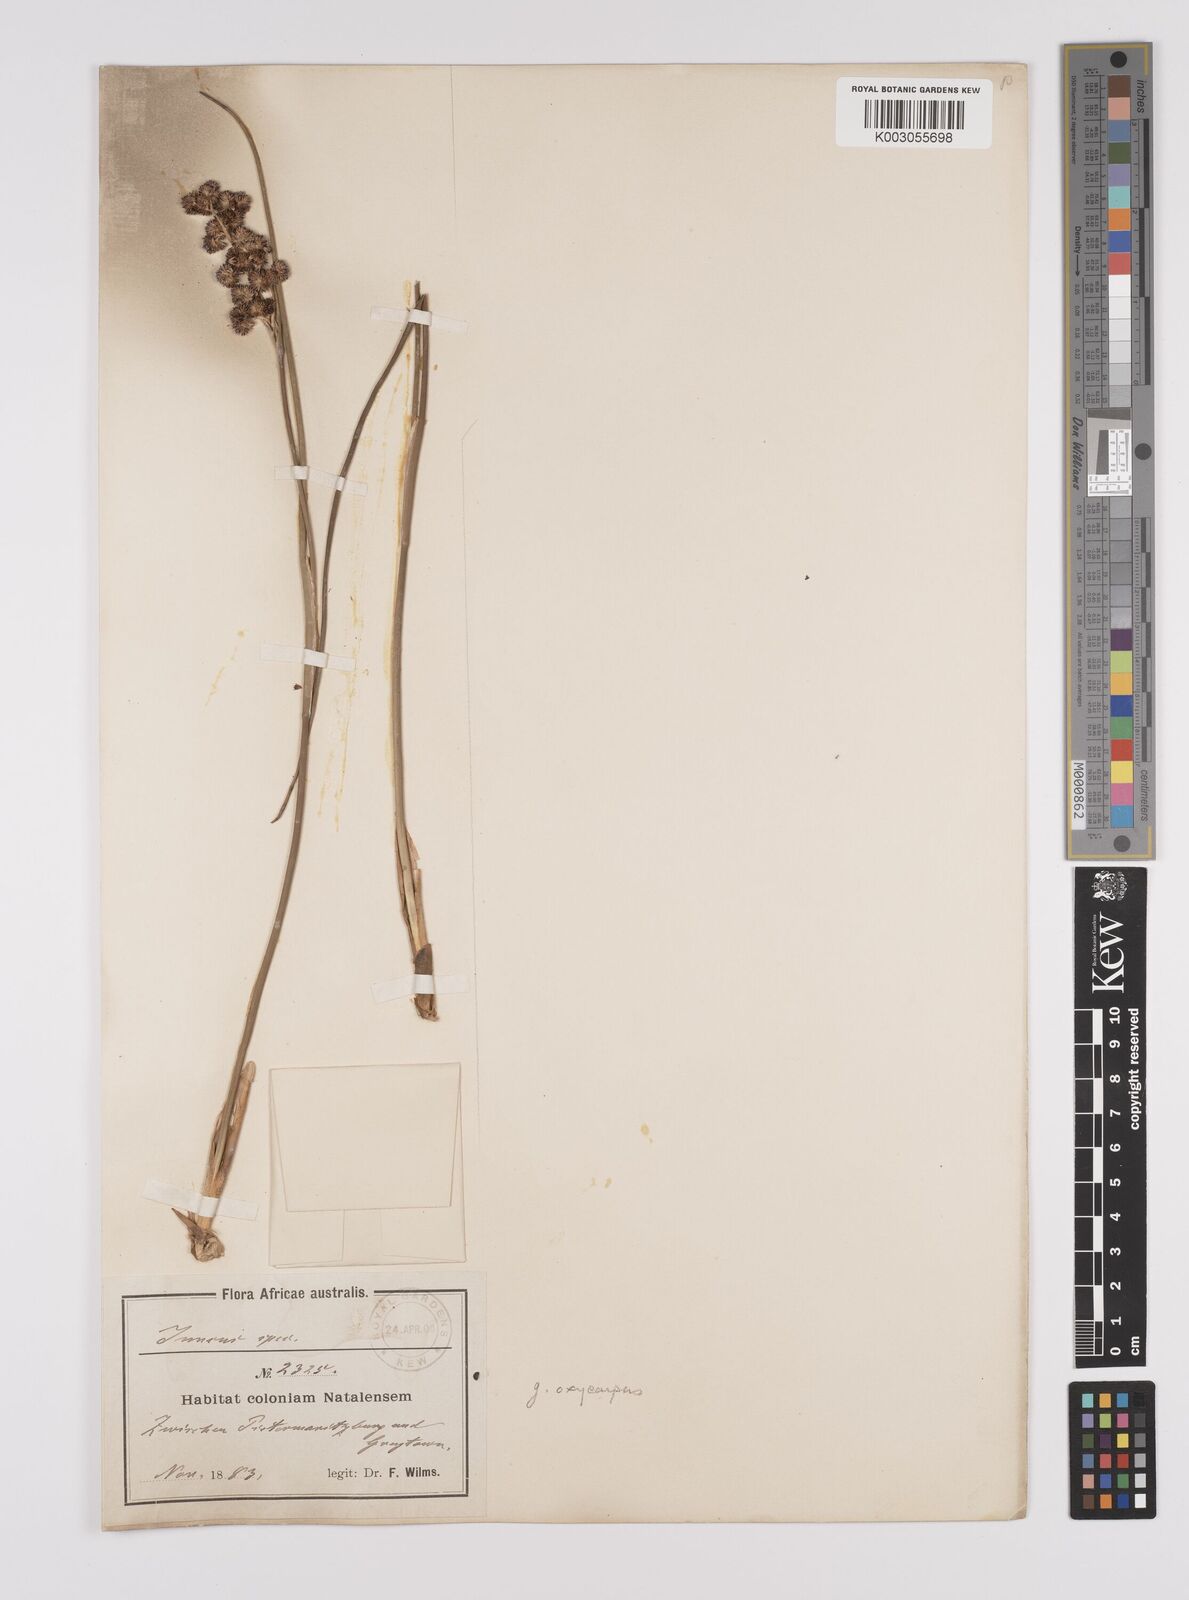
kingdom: Plantae
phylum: Tracheophyta
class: Liliopsida
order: Poales
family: Juncaceae
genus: Juncus
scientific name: Juncus oxycarpus
